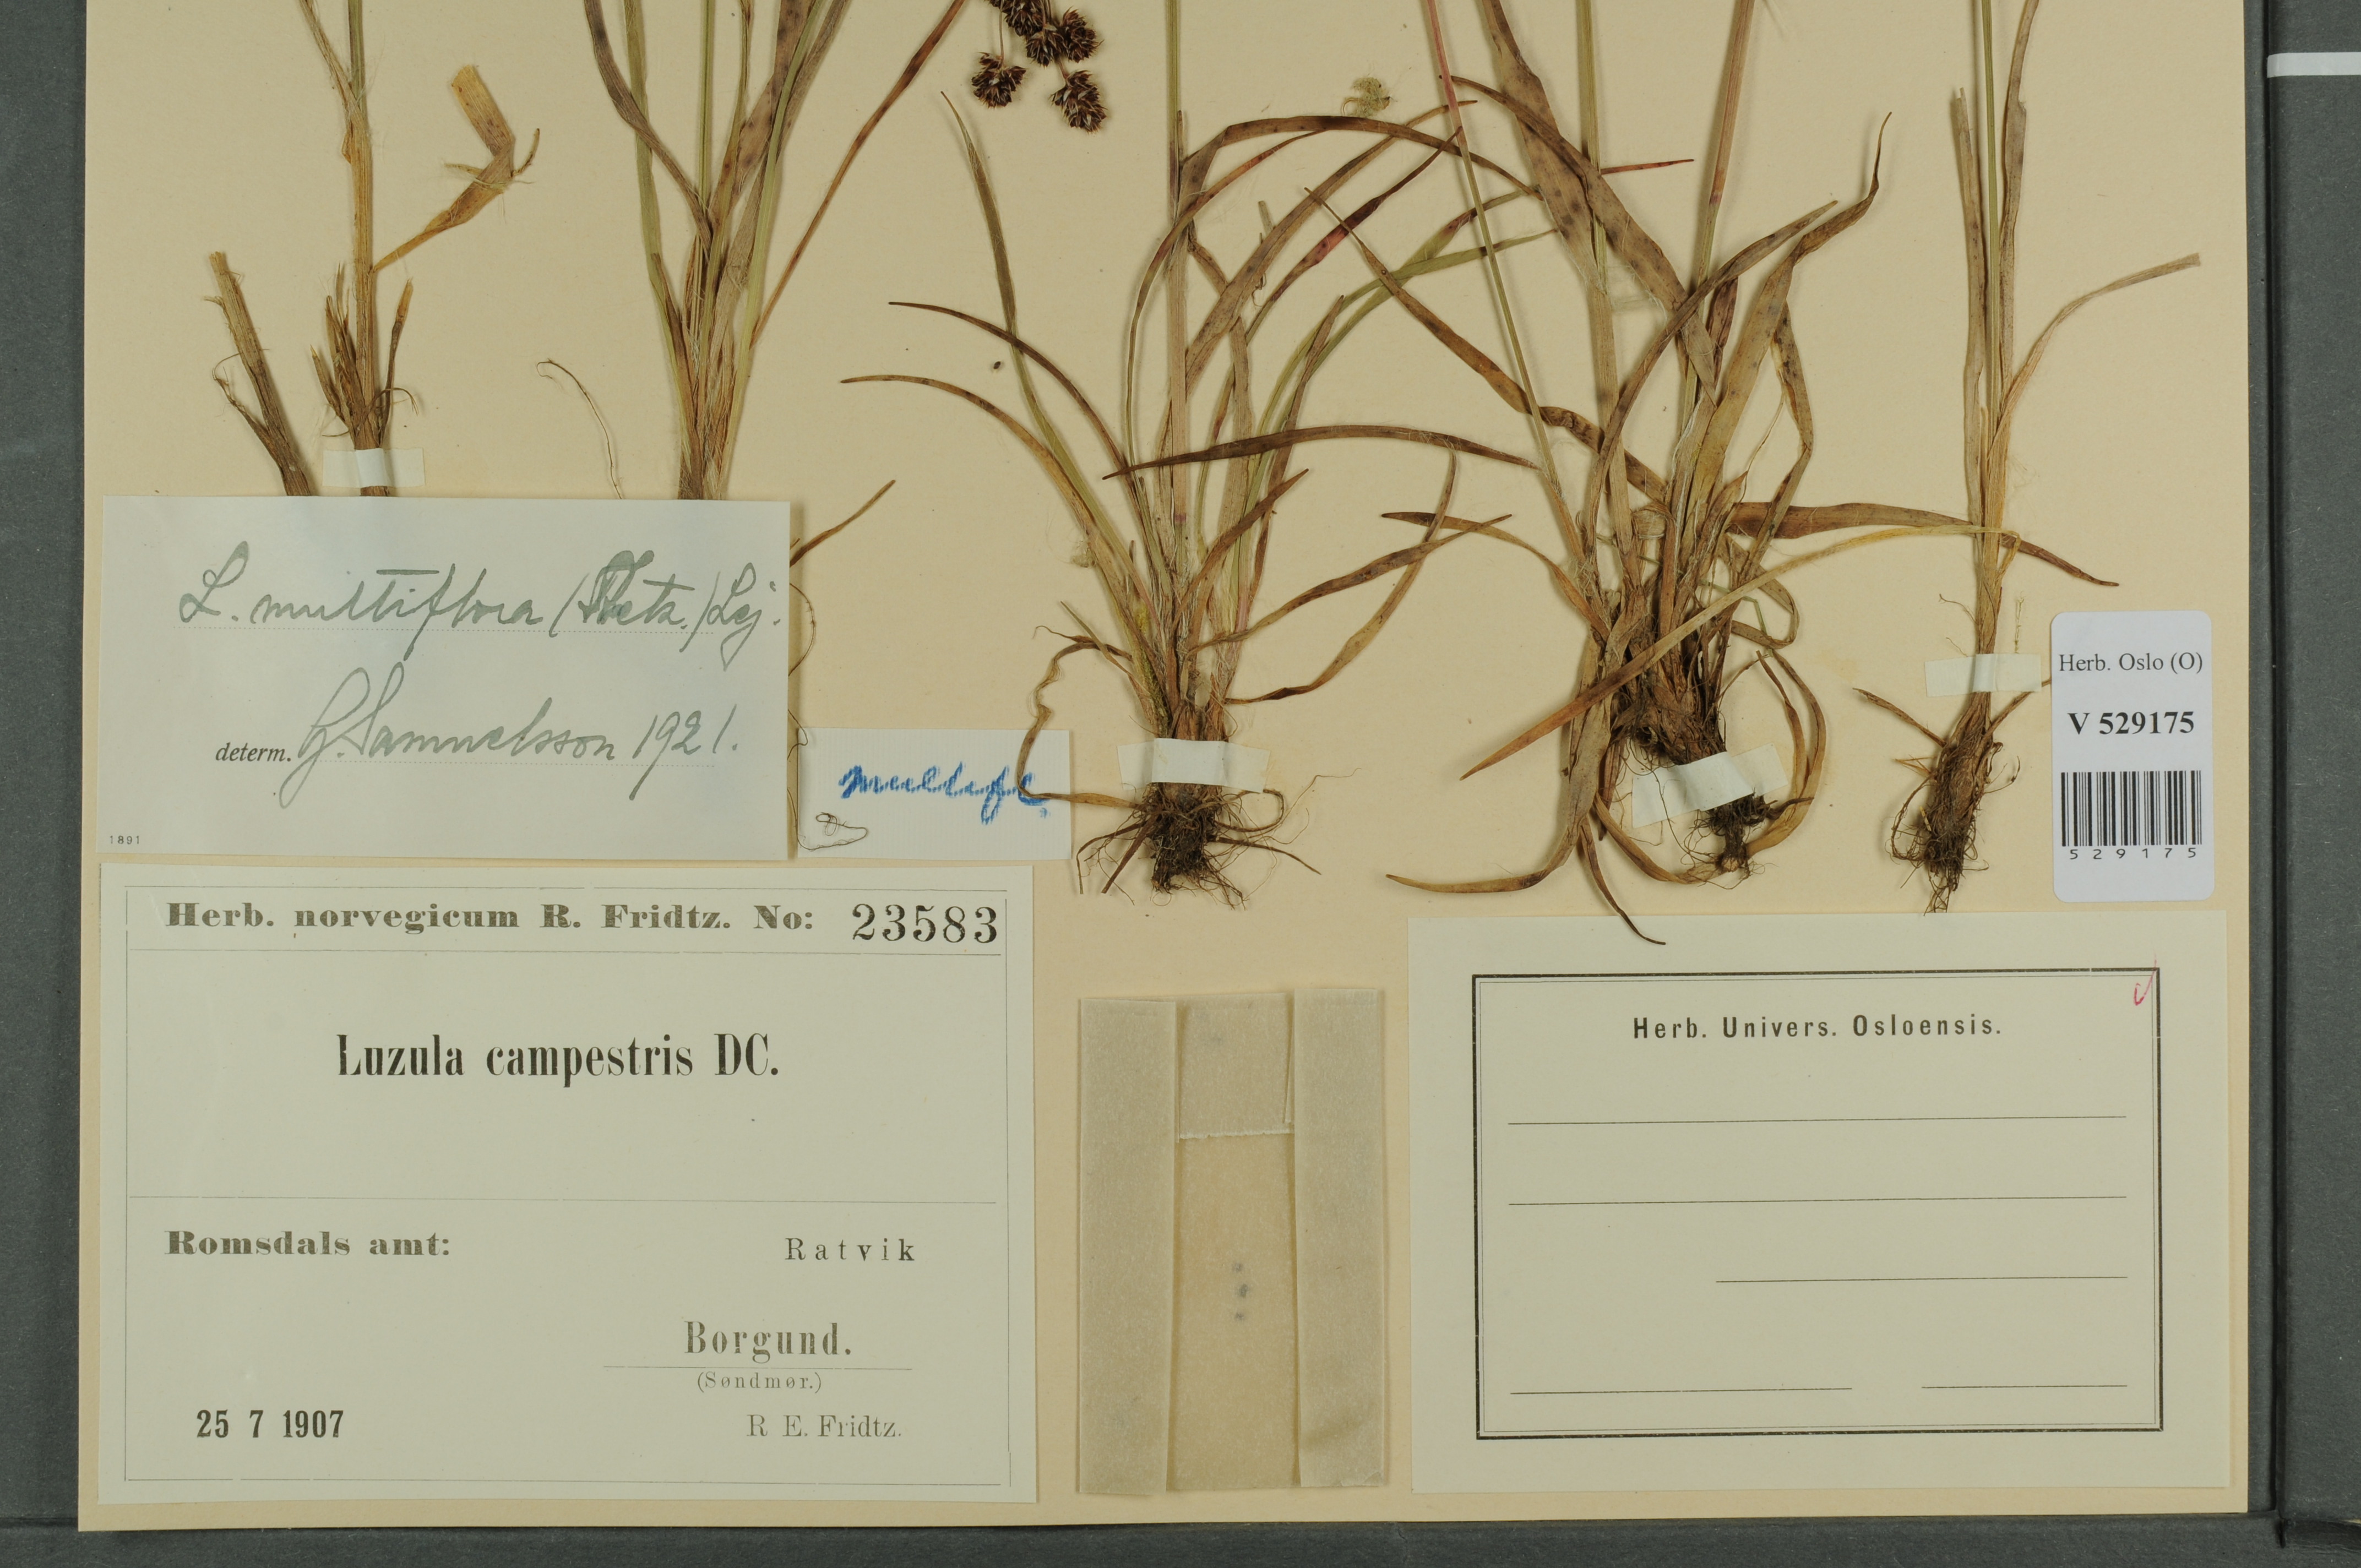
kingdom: Plantae
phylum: Tracheophyta
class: Liliopsida
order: Poales
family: Juncaceae
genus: Luzula
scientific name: Luzula multiflora
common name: Heath wood-rush
